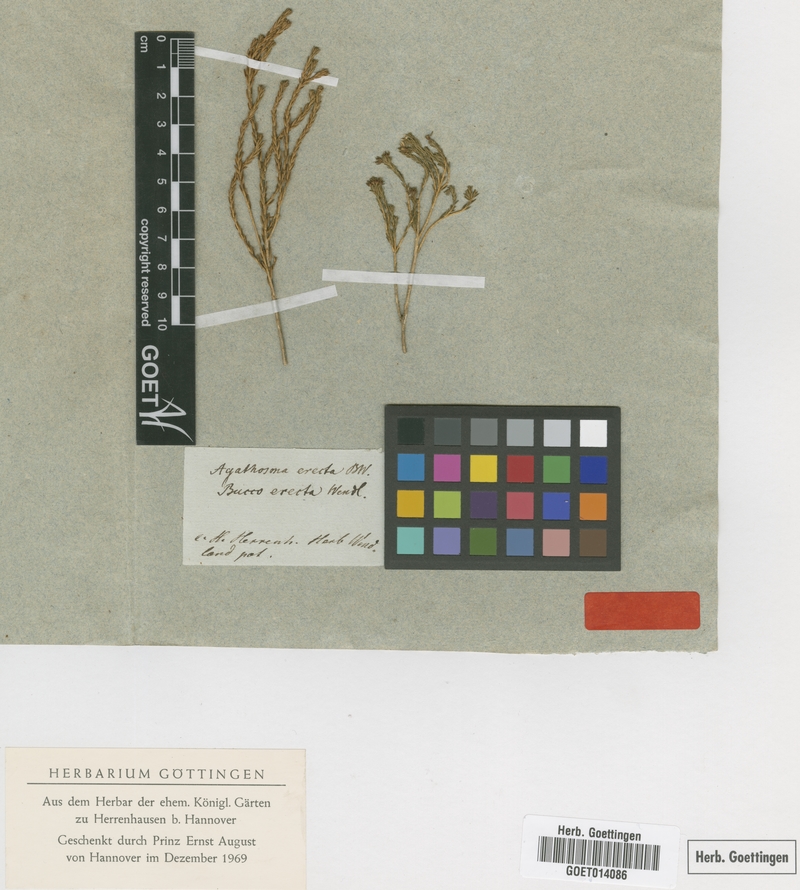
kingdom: Plantae
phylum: Tracheophyta
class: Magnoliopsida
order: Sapindales
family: Rutaceae
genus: Agathosma
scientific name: Agathosma capensis
